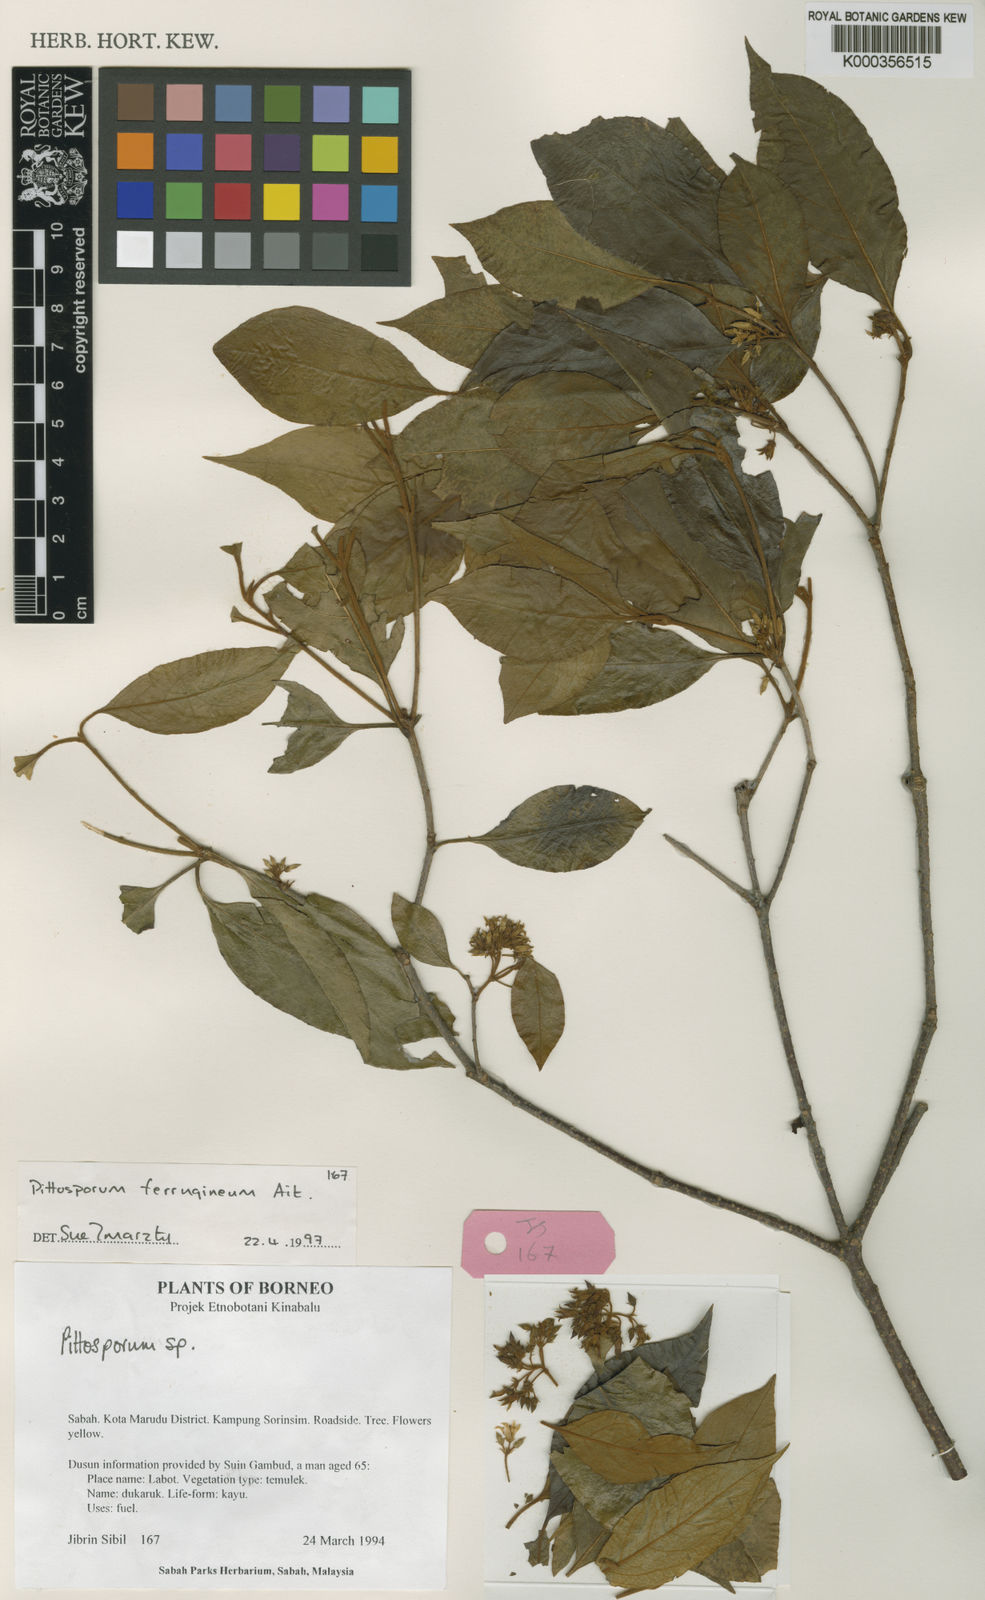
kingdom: Plantae
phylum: Tracheophyta
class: Magnoliopsida
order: Apiales
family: Pittosporaceae
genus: Pittosporum
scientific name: Pittosporum ferrugineum
